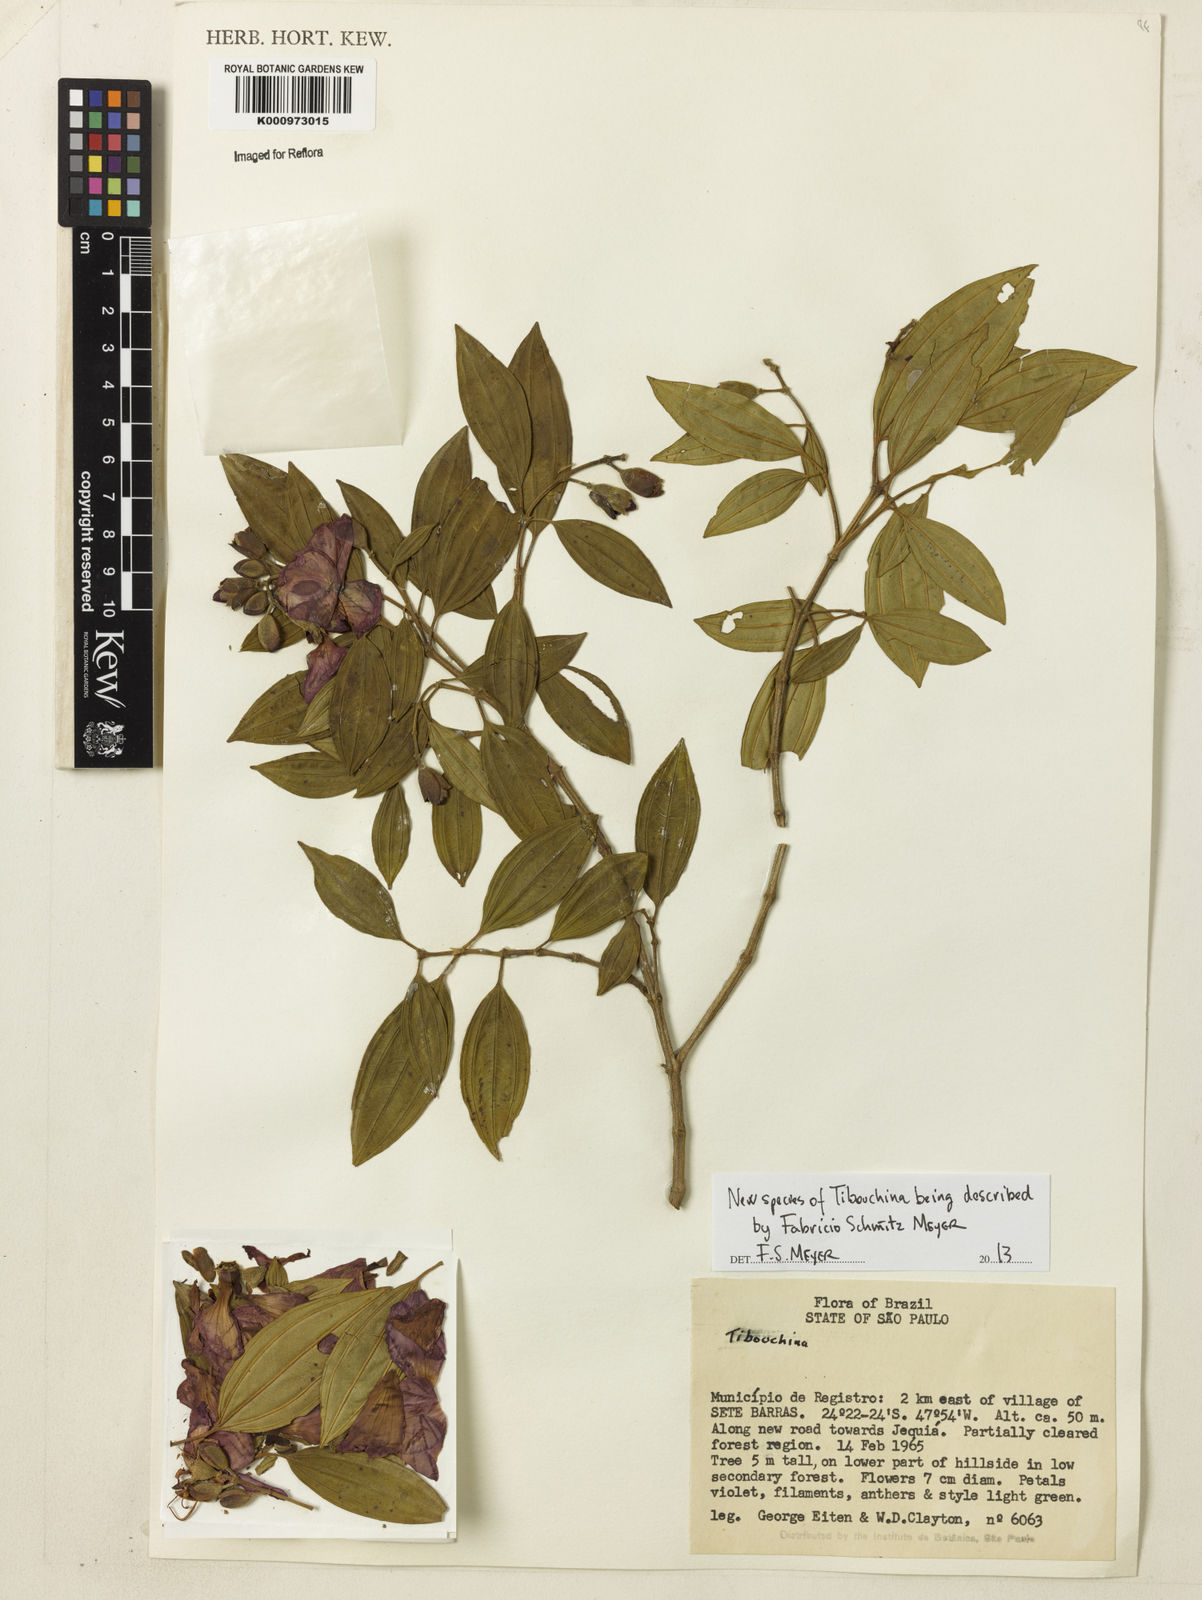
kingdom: Plantae
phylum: Tracheophyta
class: Magnoliopsida
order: Myrtales
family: Melastomataceae
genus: Tibouchina
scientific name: Tibouchina
